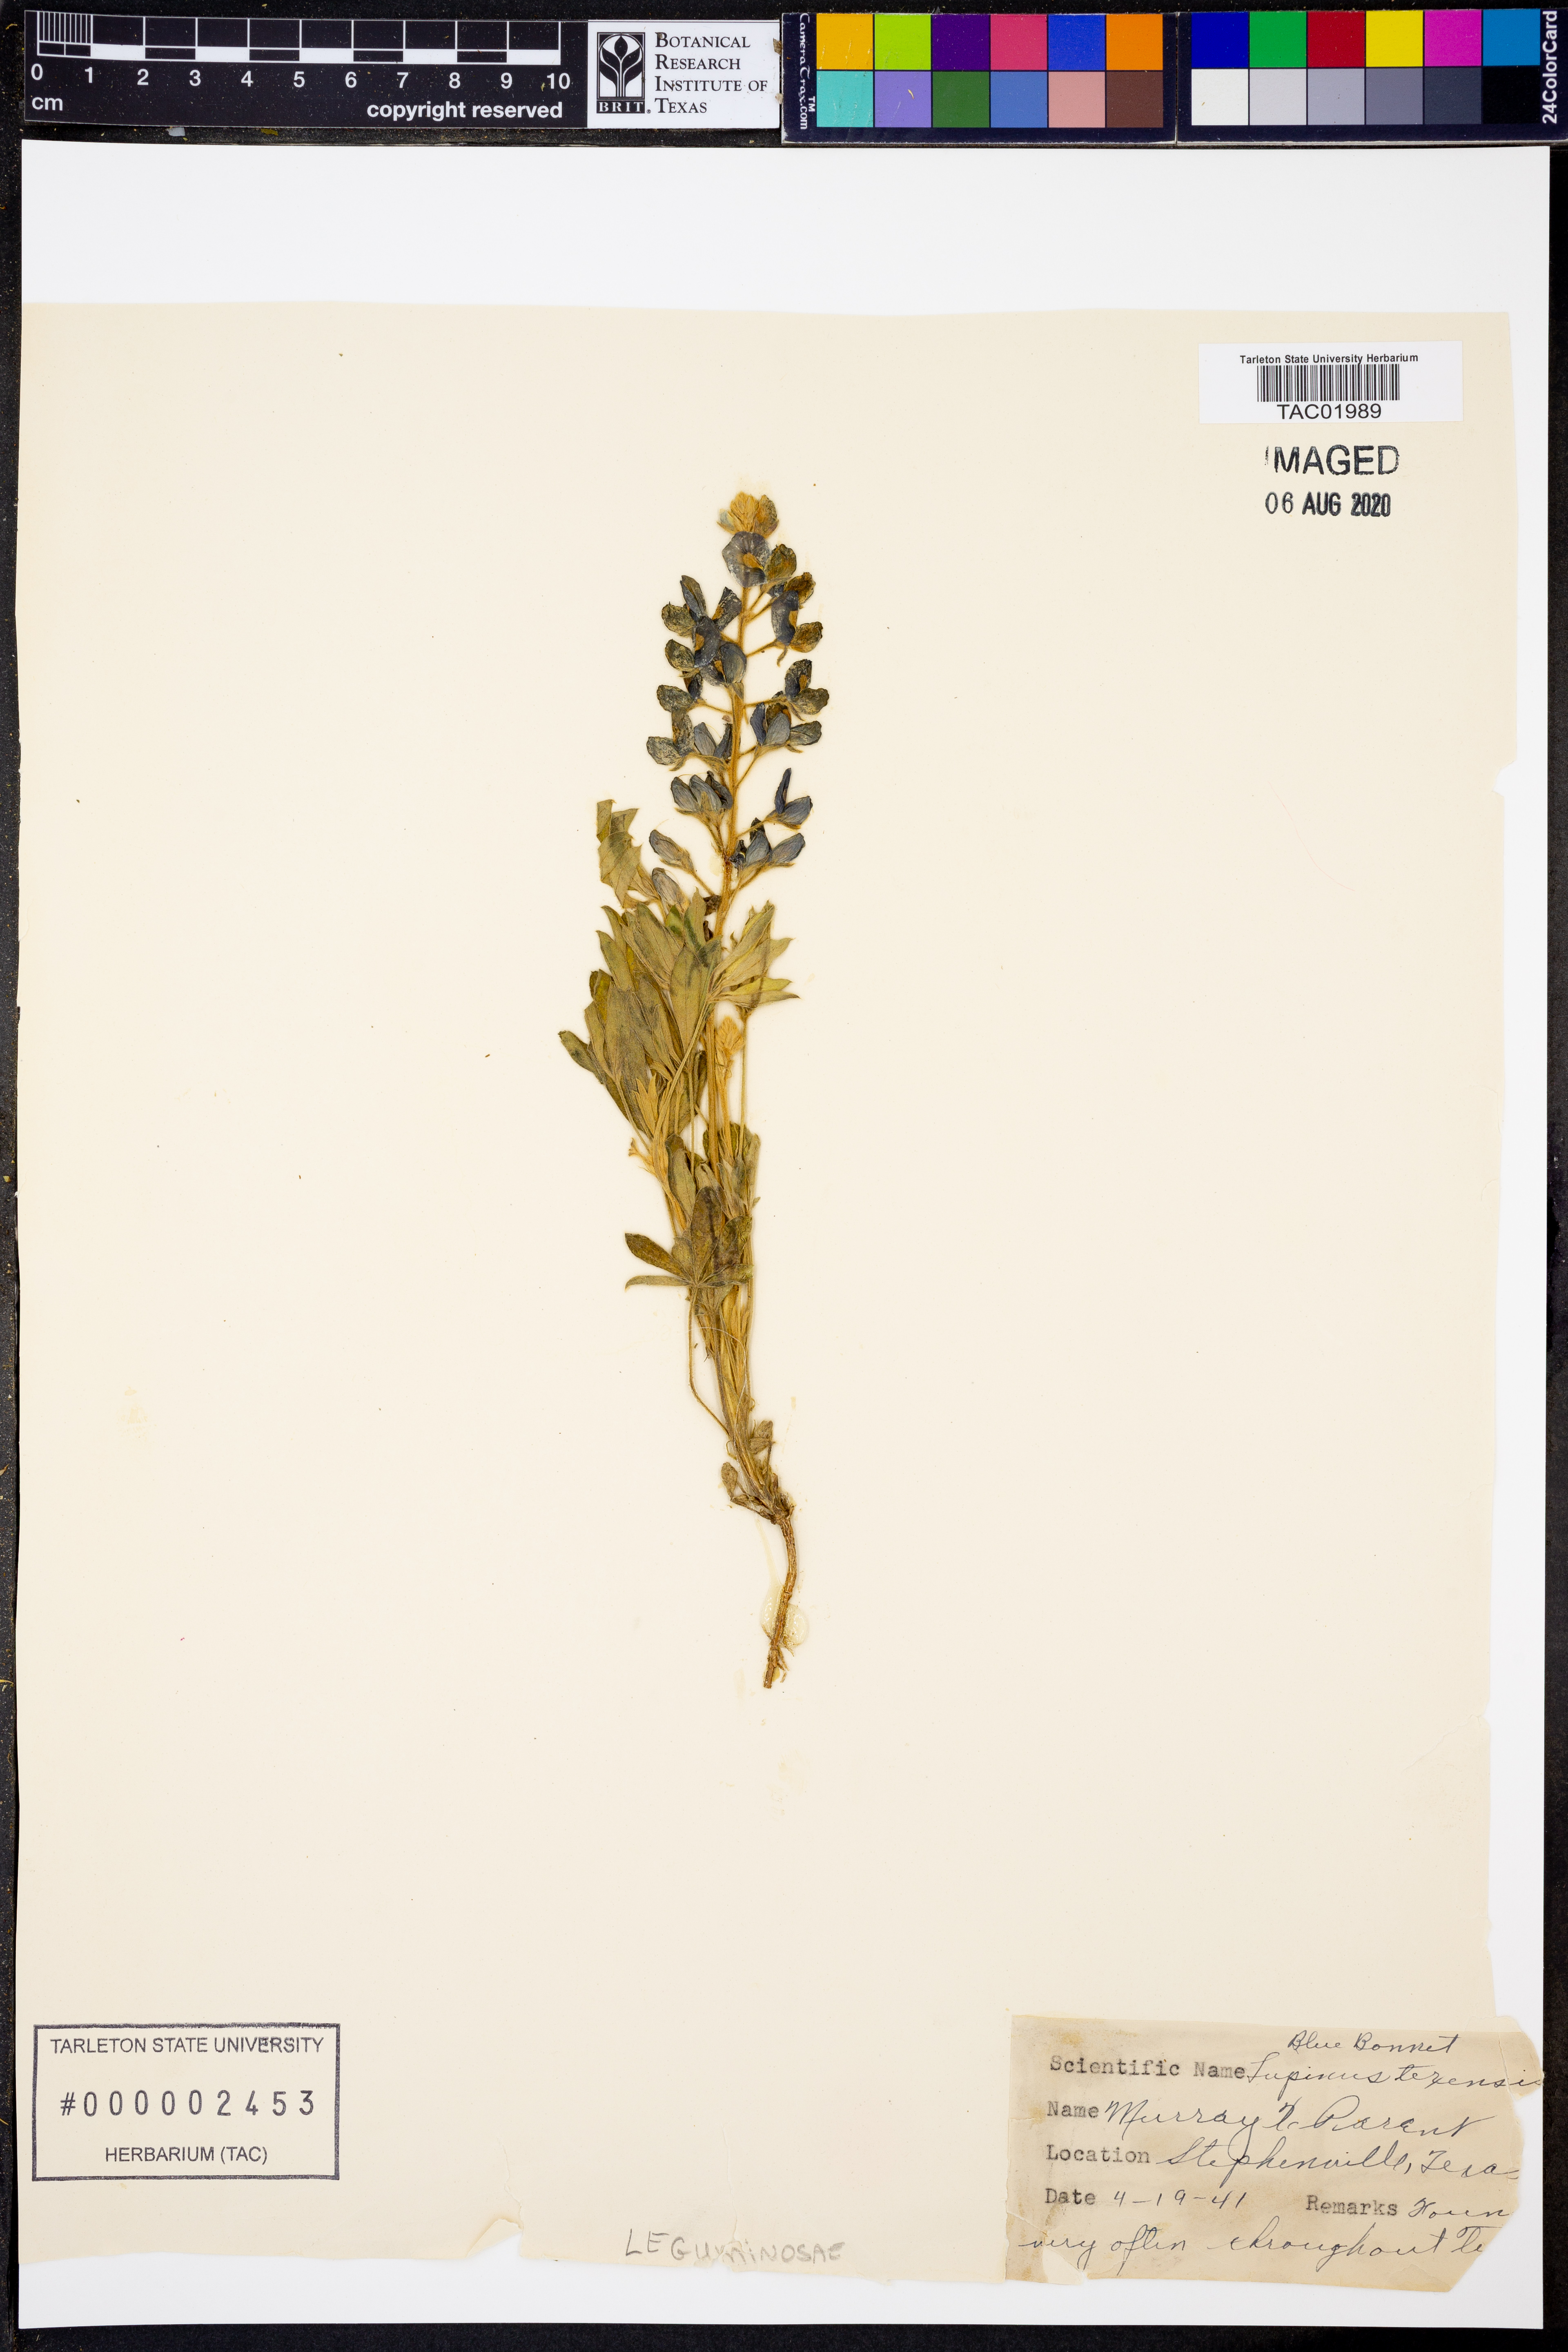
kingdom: Plantae
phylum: Tracheophyta
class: Magnoliopsida
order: Fabales
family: Fabaceae
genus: Lupinus
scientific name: Lupinus texensis
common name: Texas bluebonnet
